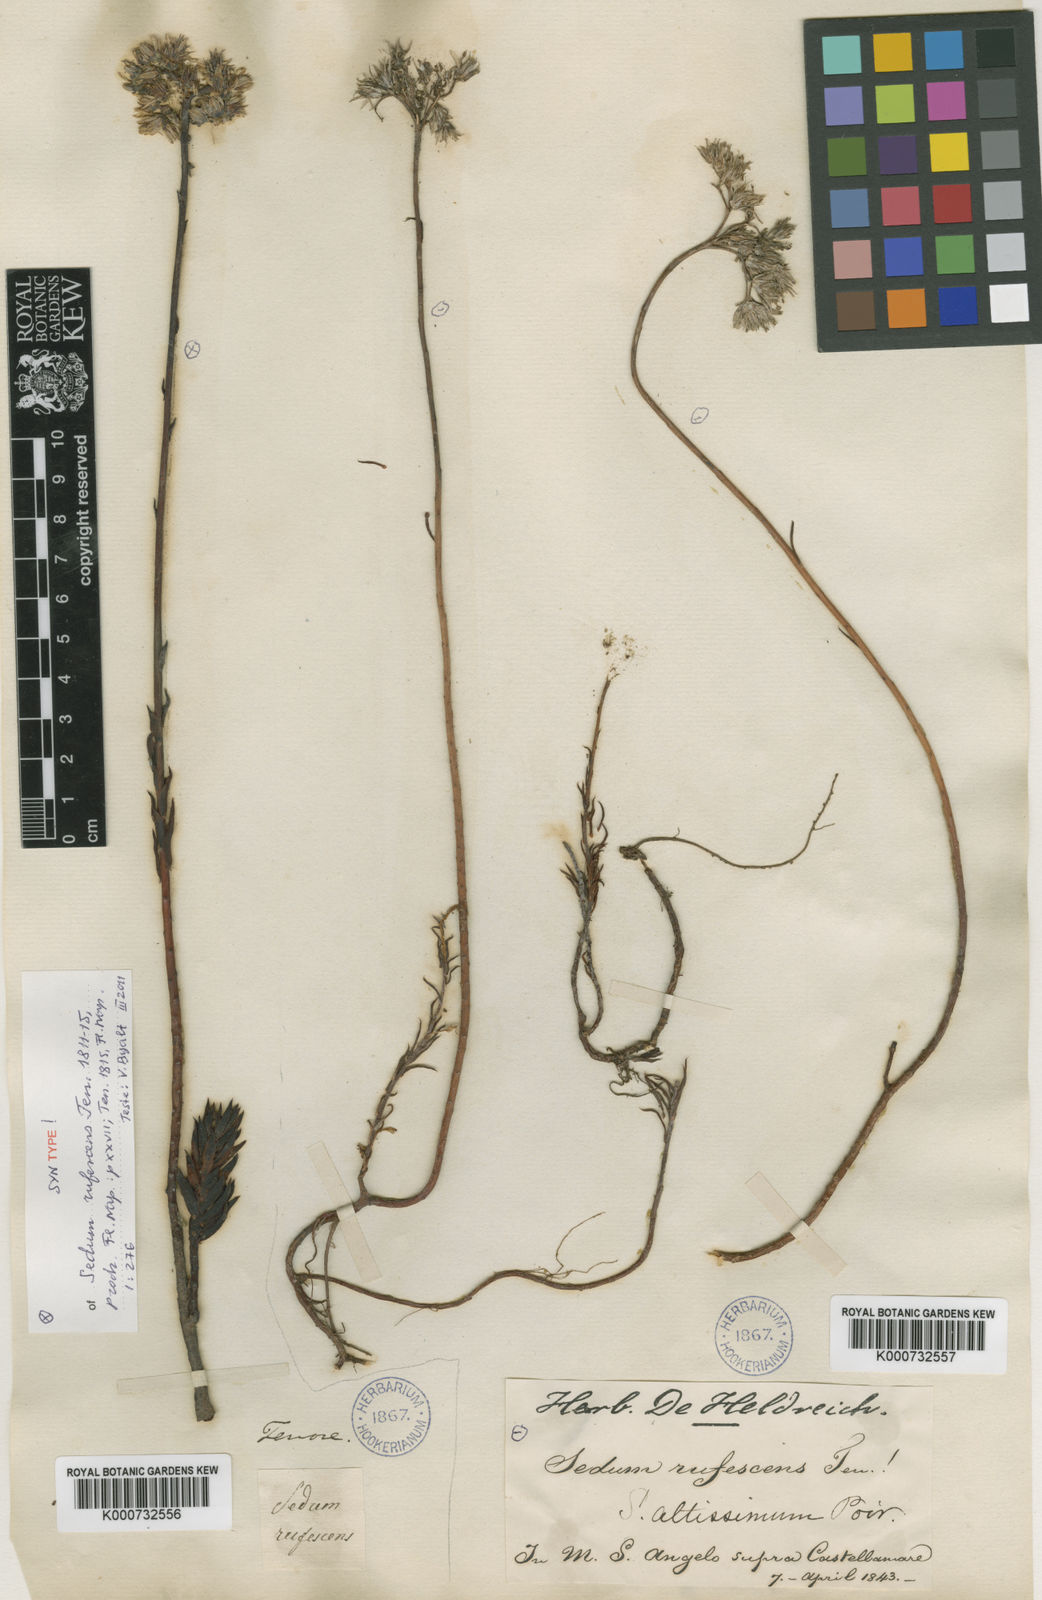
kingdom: Plantae
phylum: Tracheophyta
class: Magnoliopsida
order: Saxifragales
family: Crassulaceae
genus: Petrosedum
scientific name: Petrosedum sediforme
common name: Pale stonecrop
